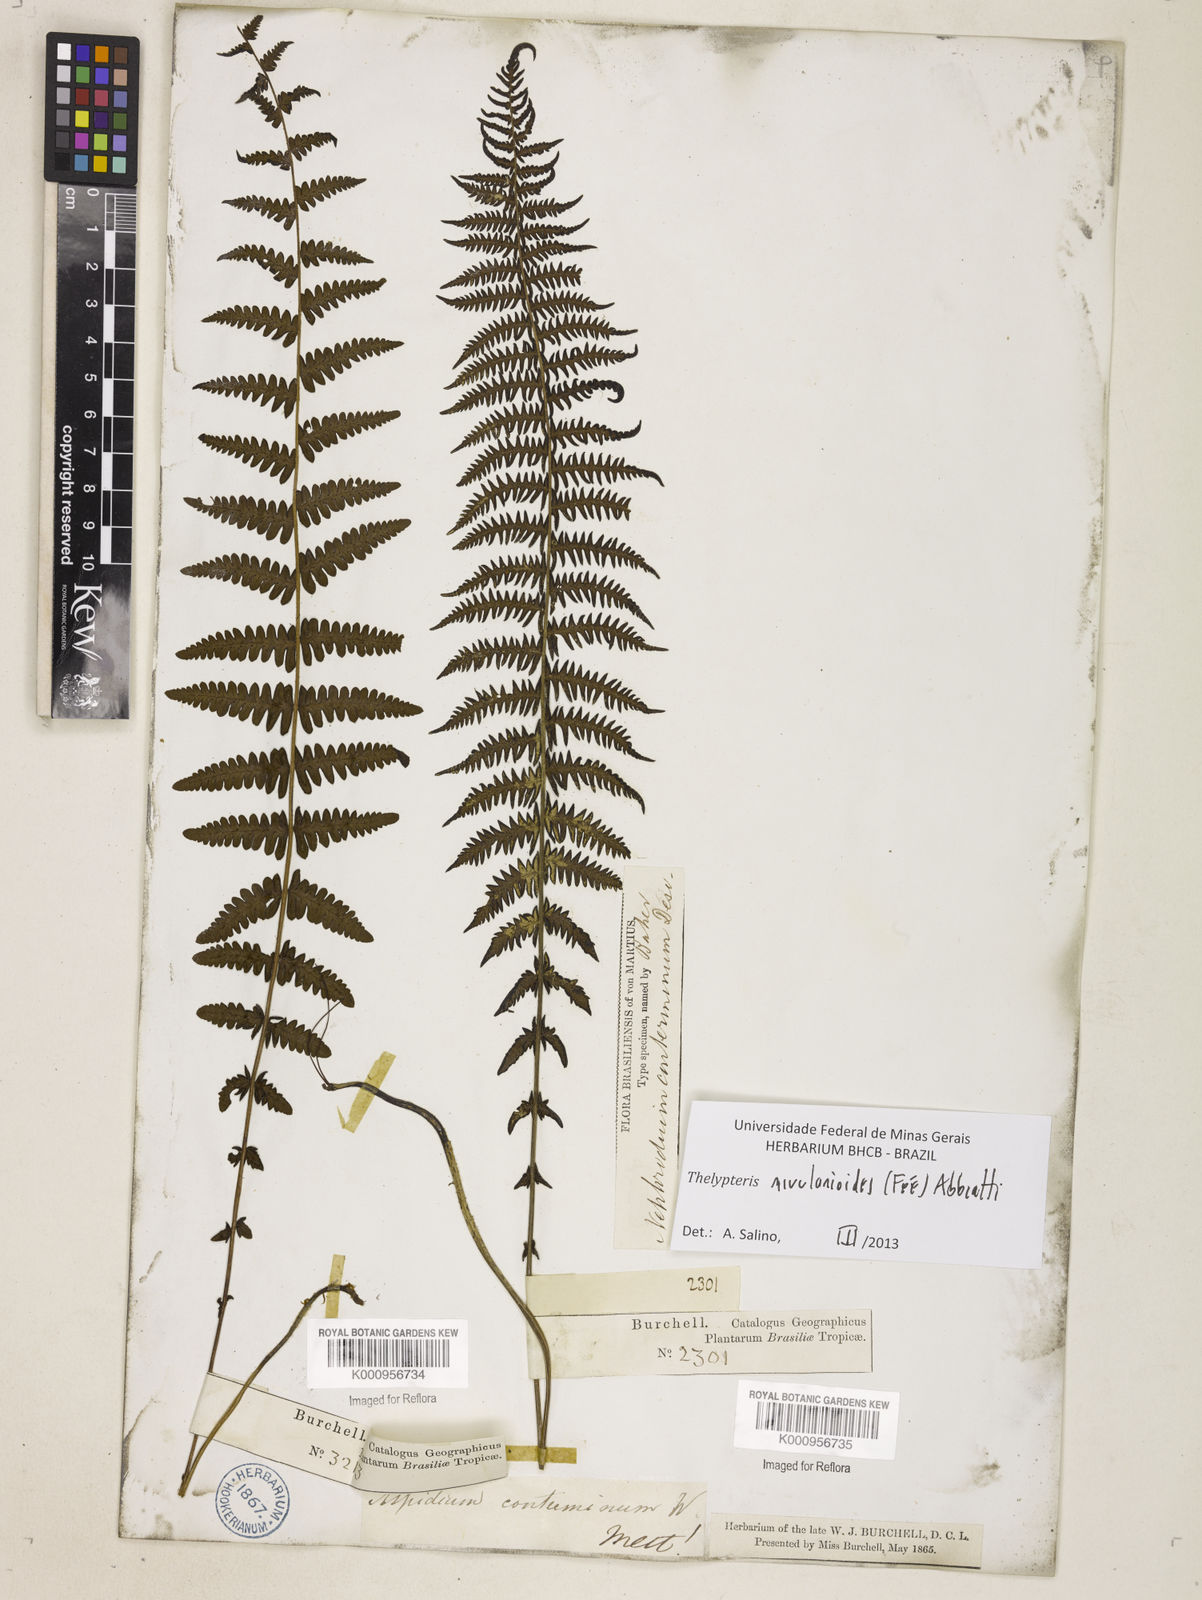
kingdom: Plantae
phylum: Tracheophyta
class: Polypodiopsida
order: Polypodiales
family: Thelypteridaceae
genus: Amauropelta
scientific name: Amauropelta rivularioides
